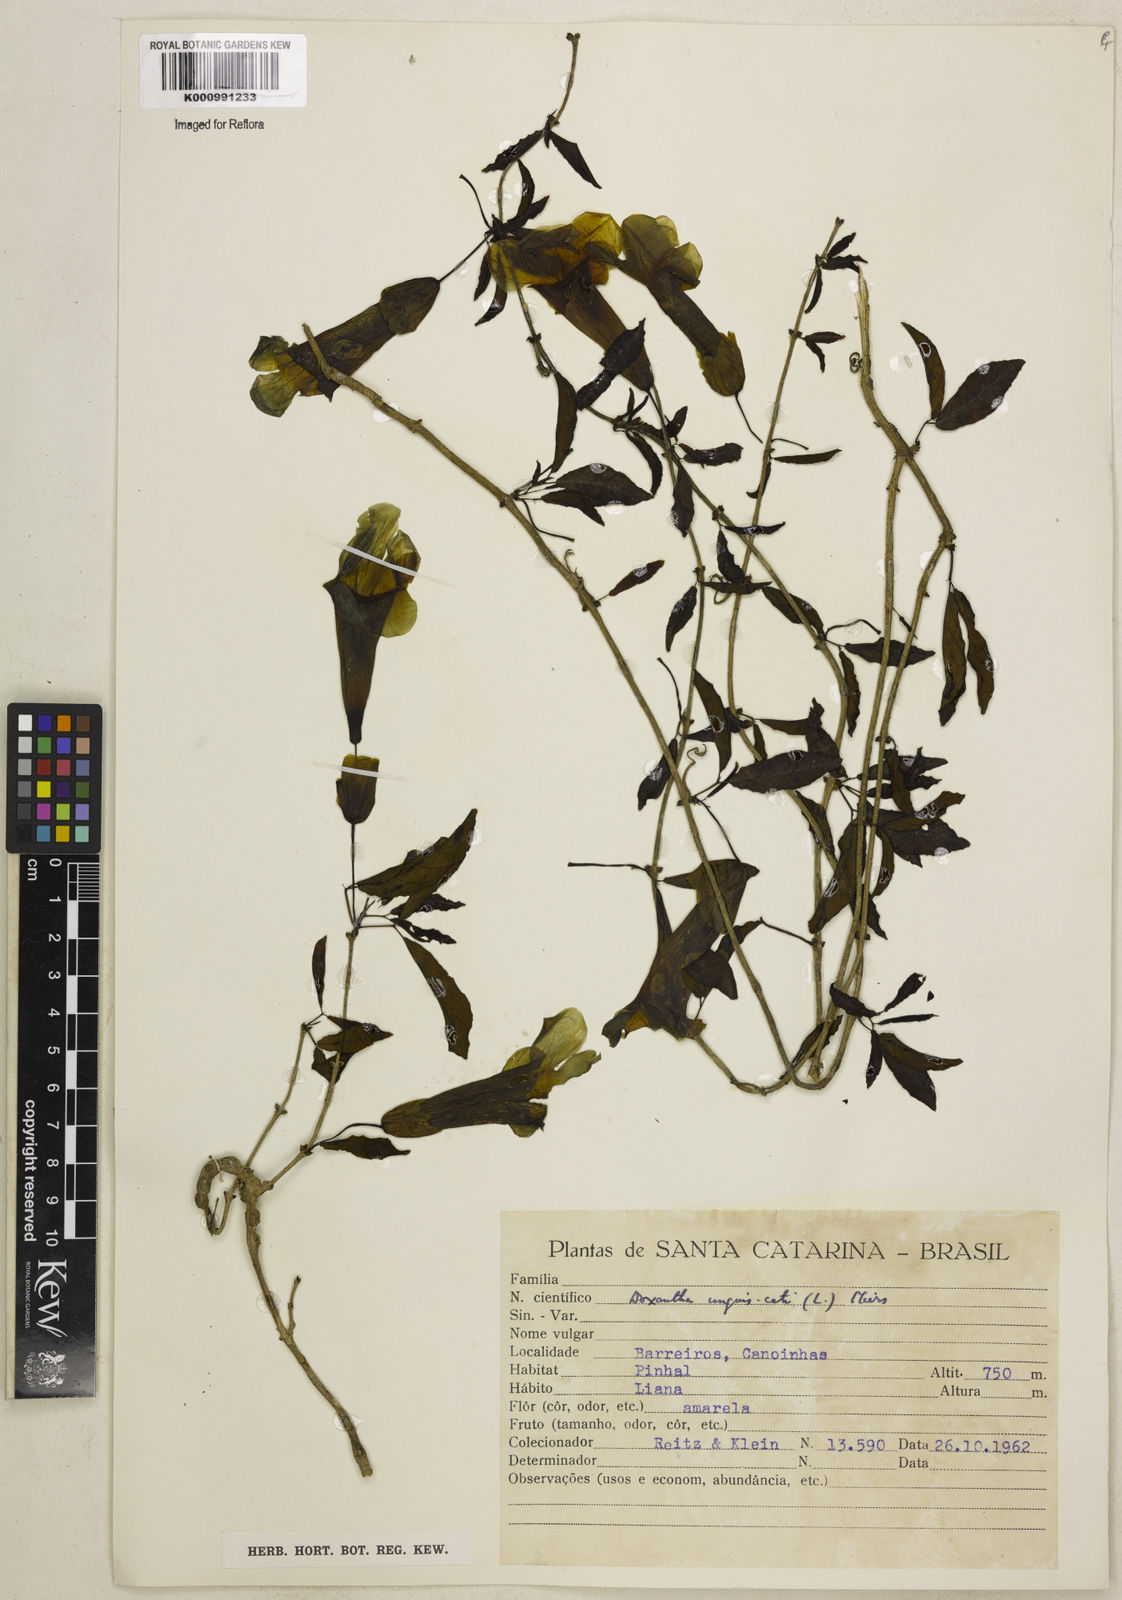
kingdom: Plantae
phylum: Tracheophyta
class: Magnoliopsida
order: Lamiales
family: Bignoniaceae
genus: Dolichandra
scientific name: Dolichandra unguis-cati
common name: Catclaw vine
